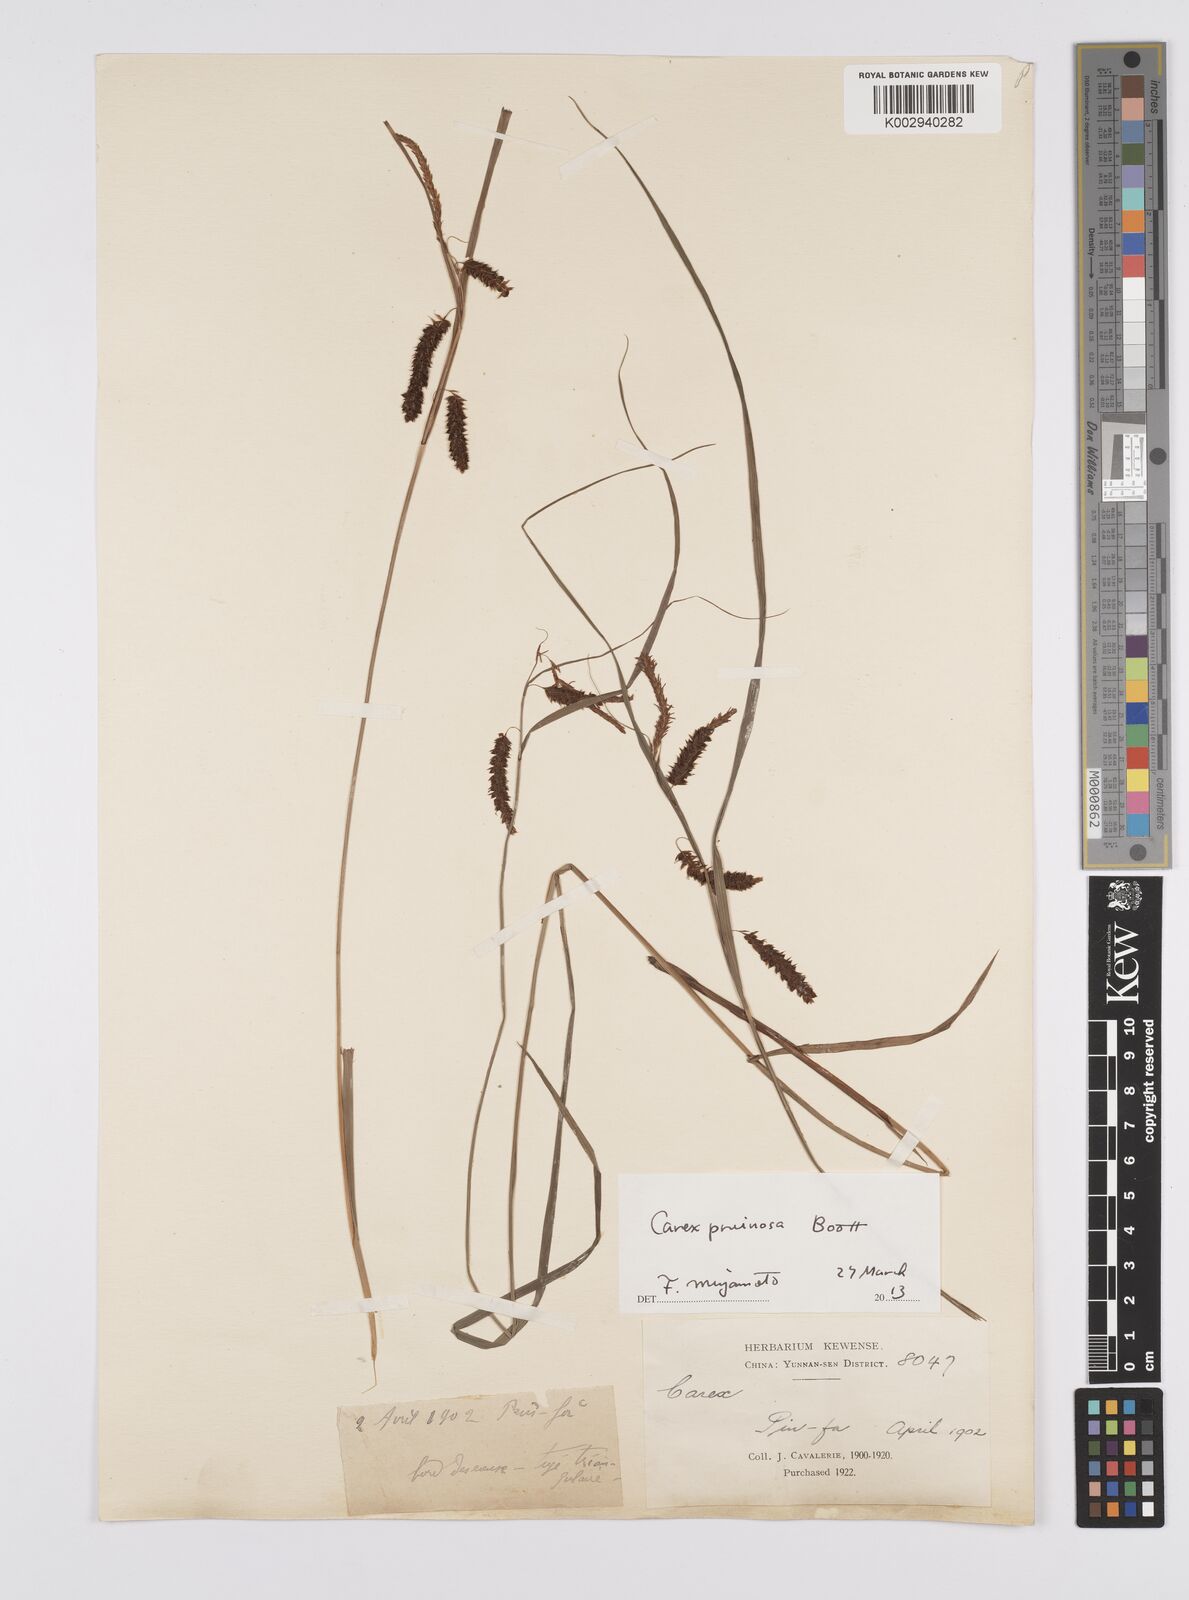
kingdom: Plantae
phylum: Tracheophyta
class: Liliopsida
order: Poales
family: Cyperaceae
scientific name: Cyperaceae
